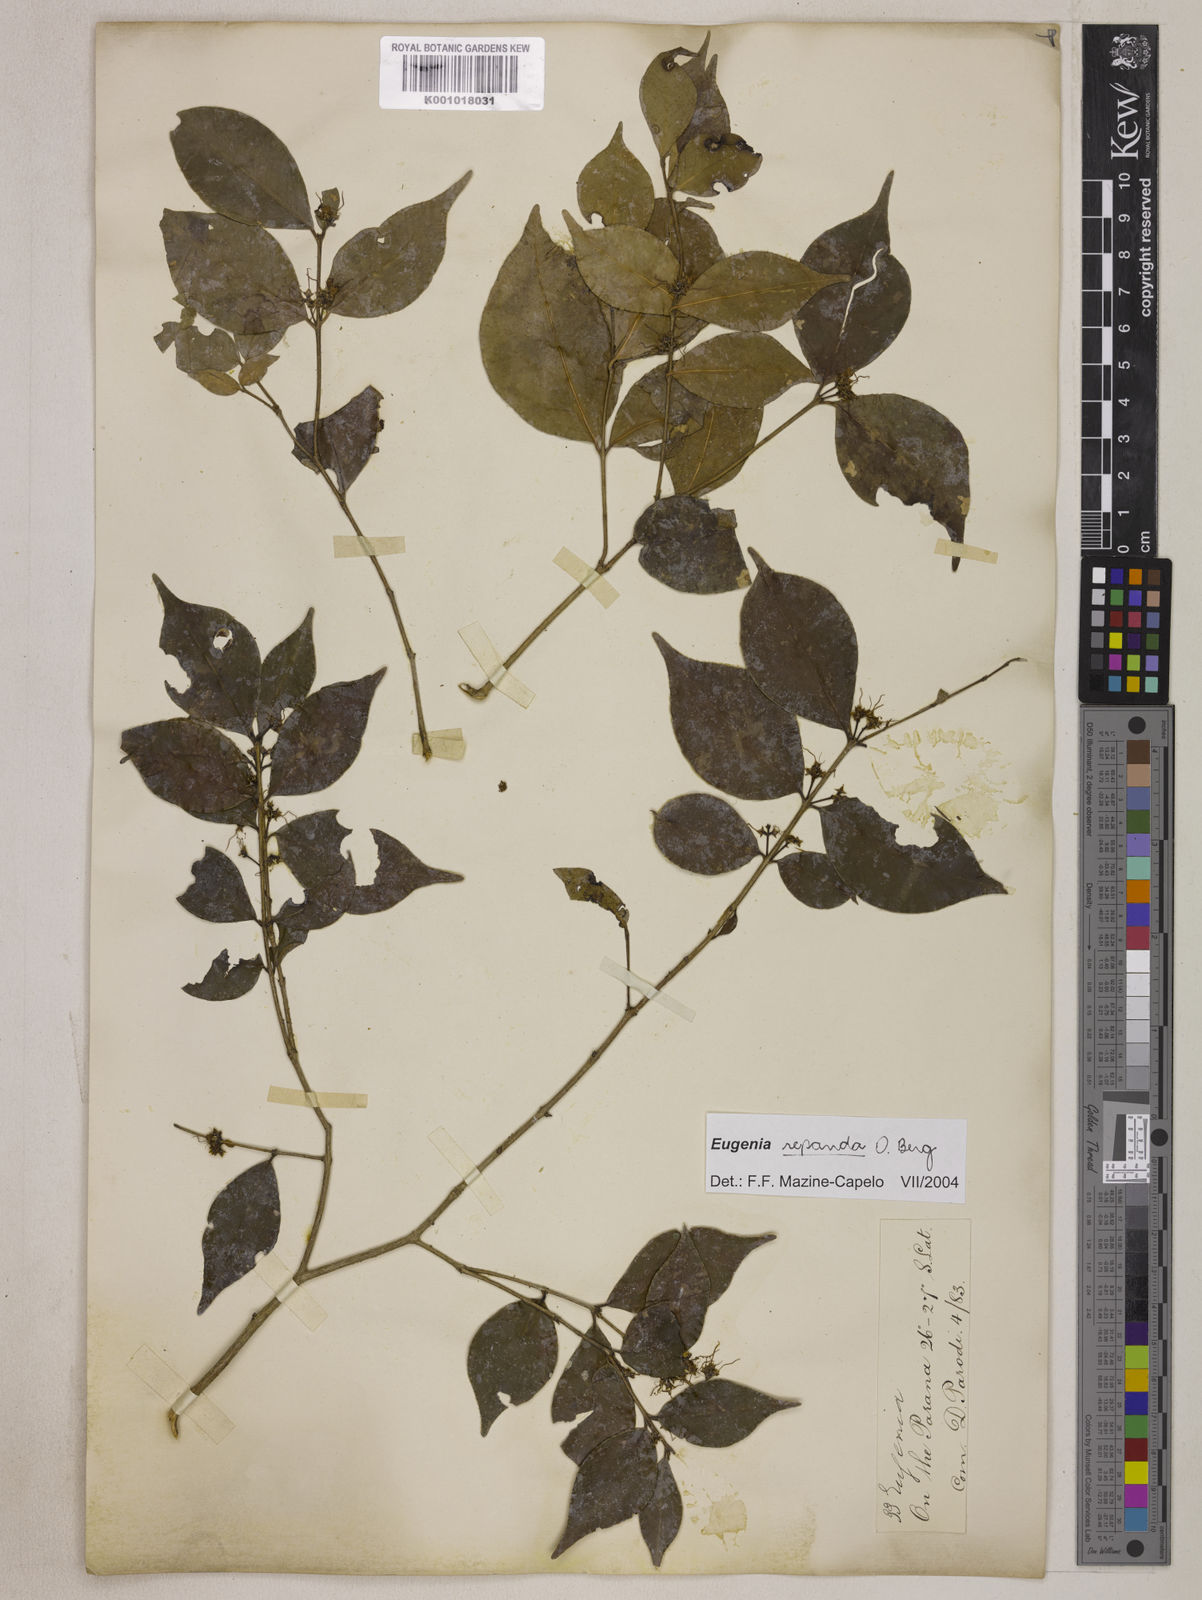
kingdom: Plantae
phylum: Tracheophyta
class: Magnoliopsida
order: Myrtales
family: Myrtaceae
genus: Eugenia
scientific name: Eugenia repanda
